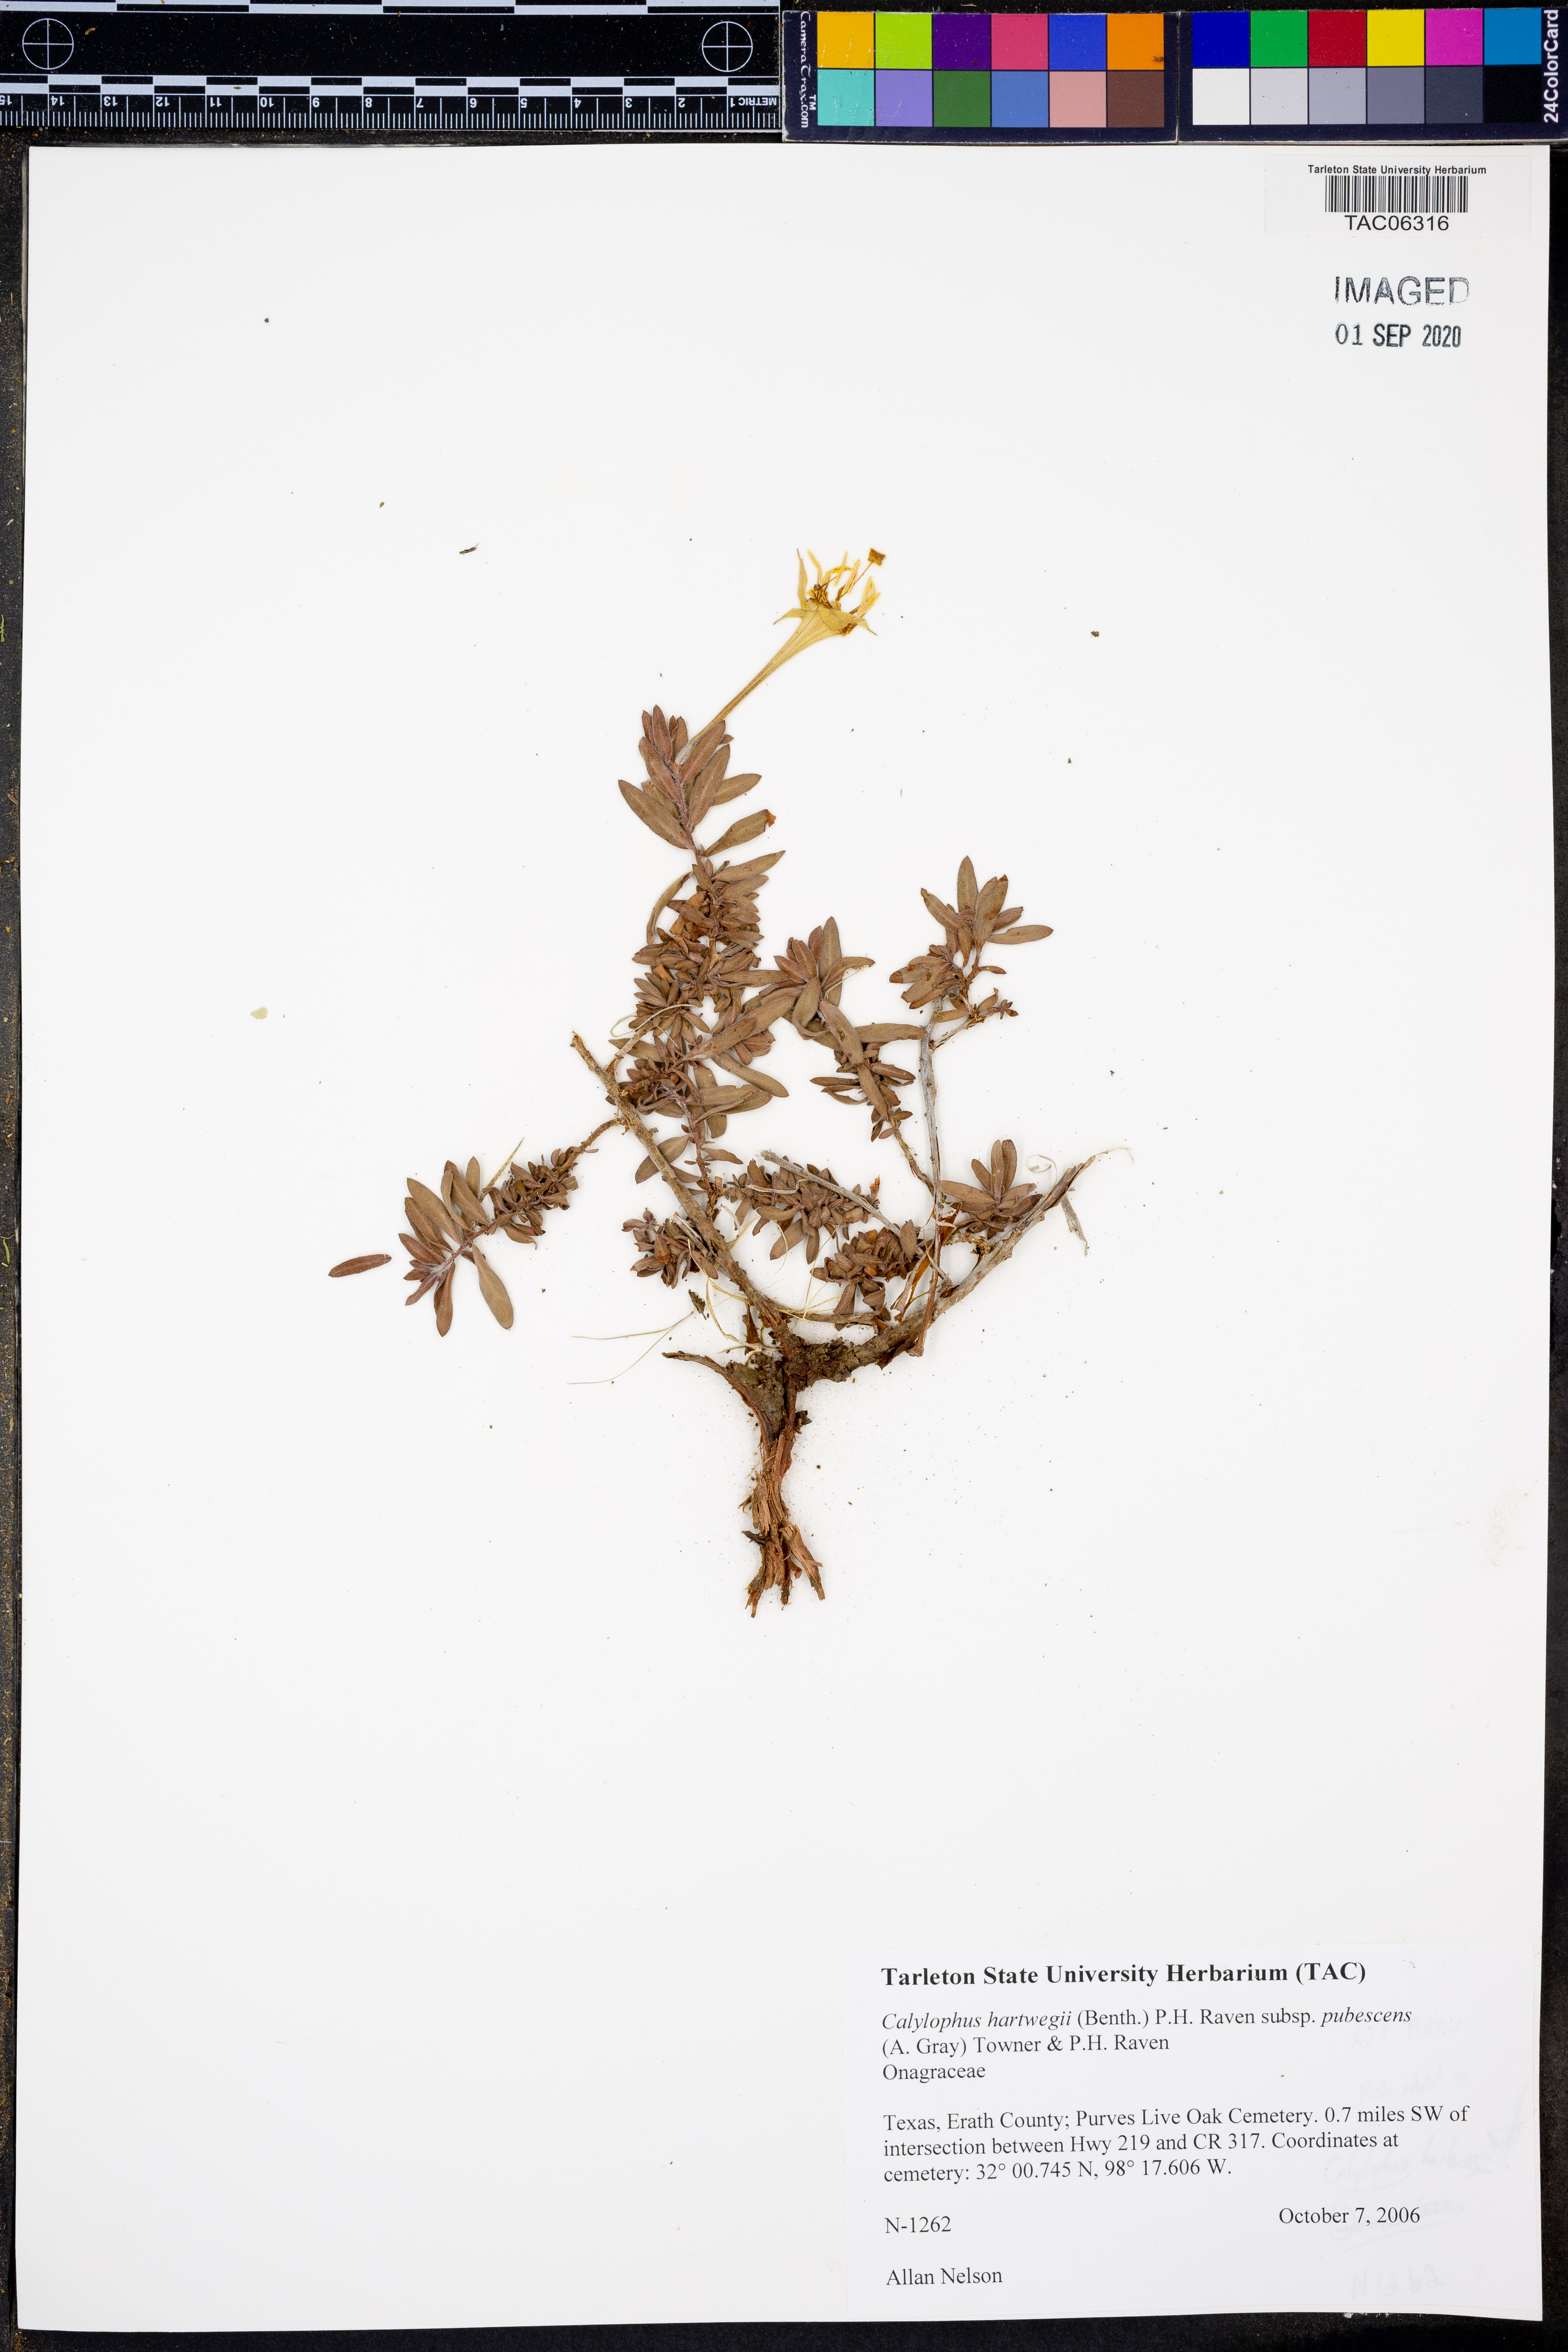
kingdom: Plantae
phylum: Tracheophyta
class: Magnoliopsida
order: Myrtales
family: Onagraceae
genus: Oenothera
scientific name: Oenothera hartwegii
